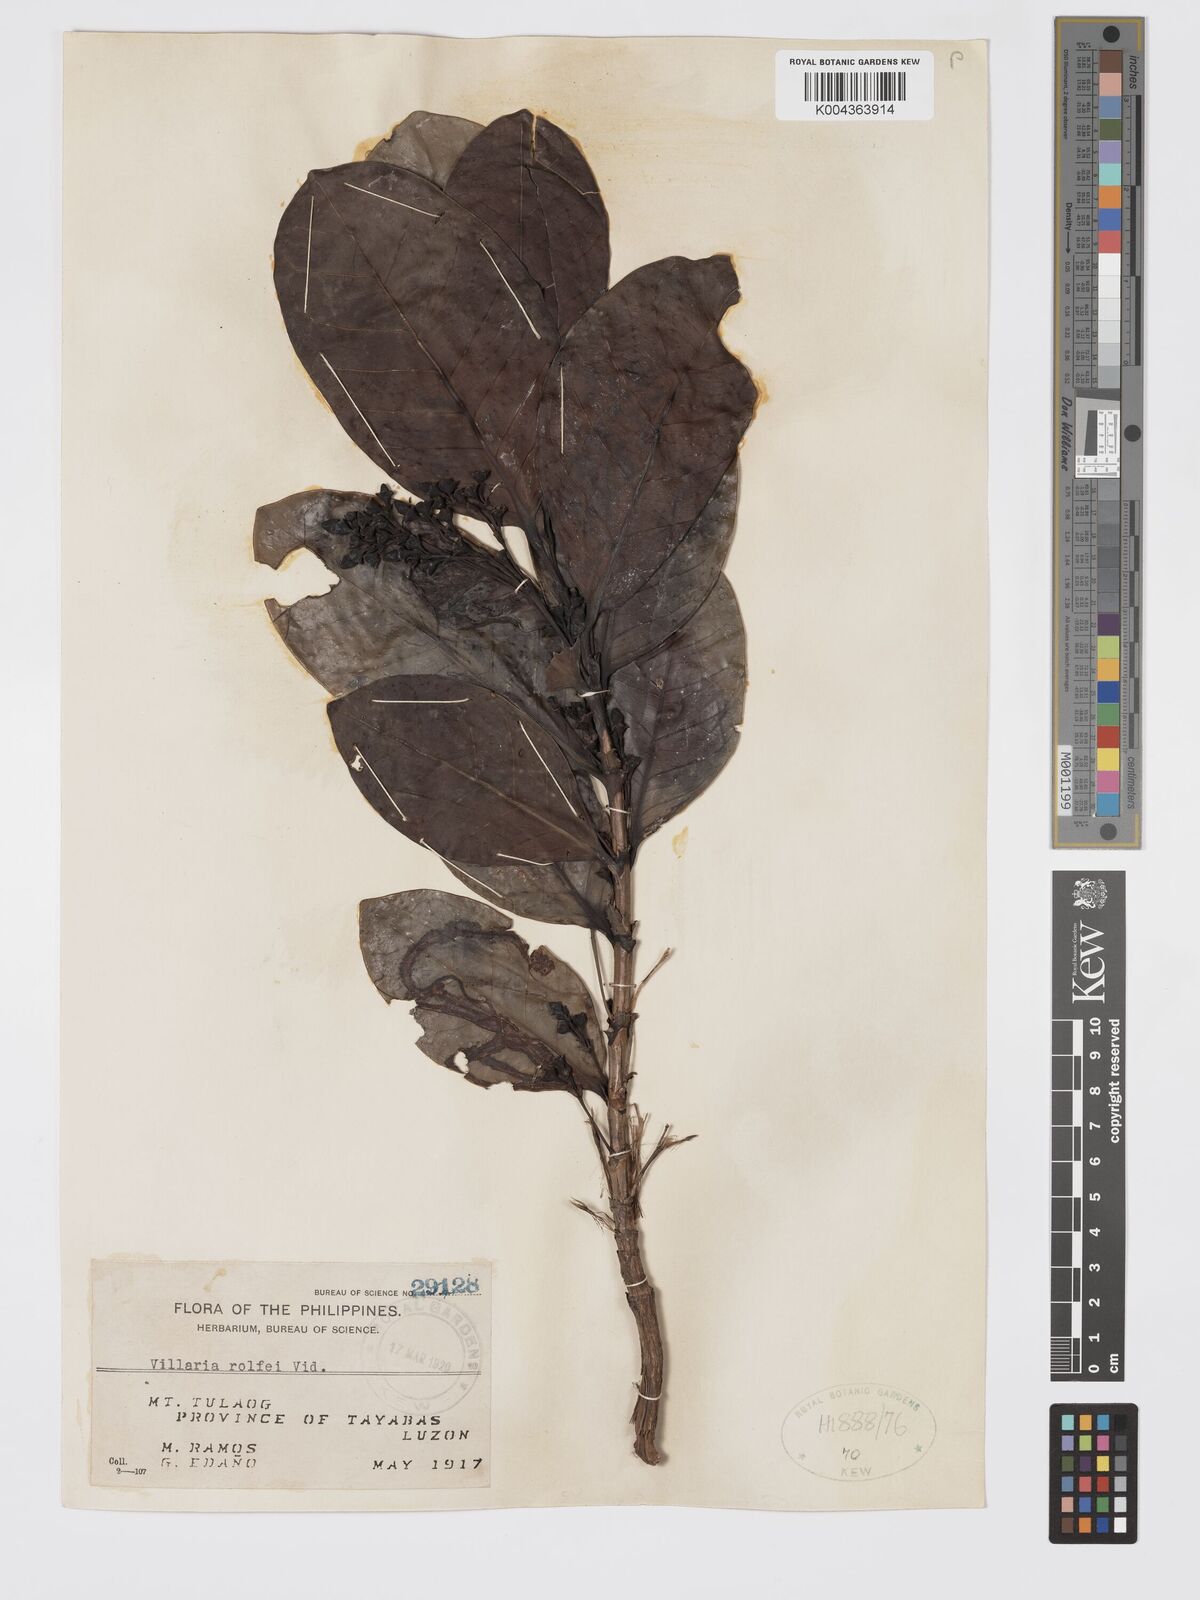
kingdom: Plantae
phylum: Tracheophyta
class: Magnoliopsida
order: Gentianales
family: Rubiaceae
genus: Villaria
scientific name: Villaria odorata
